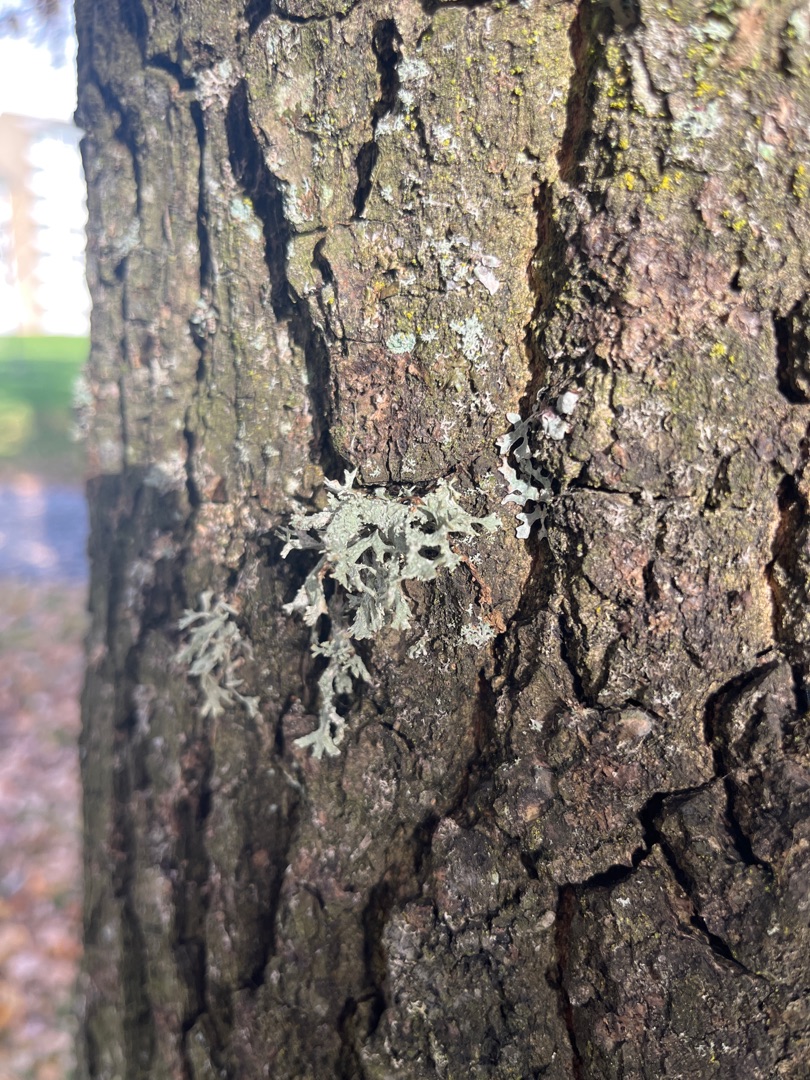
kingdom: Fungi
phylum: Ascomycota
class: Lecanoromycetes
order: Lecanorales
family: Parmeliaceae
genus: Evernia
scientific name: Evernia prunastri
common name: Almindelig slåenlav
